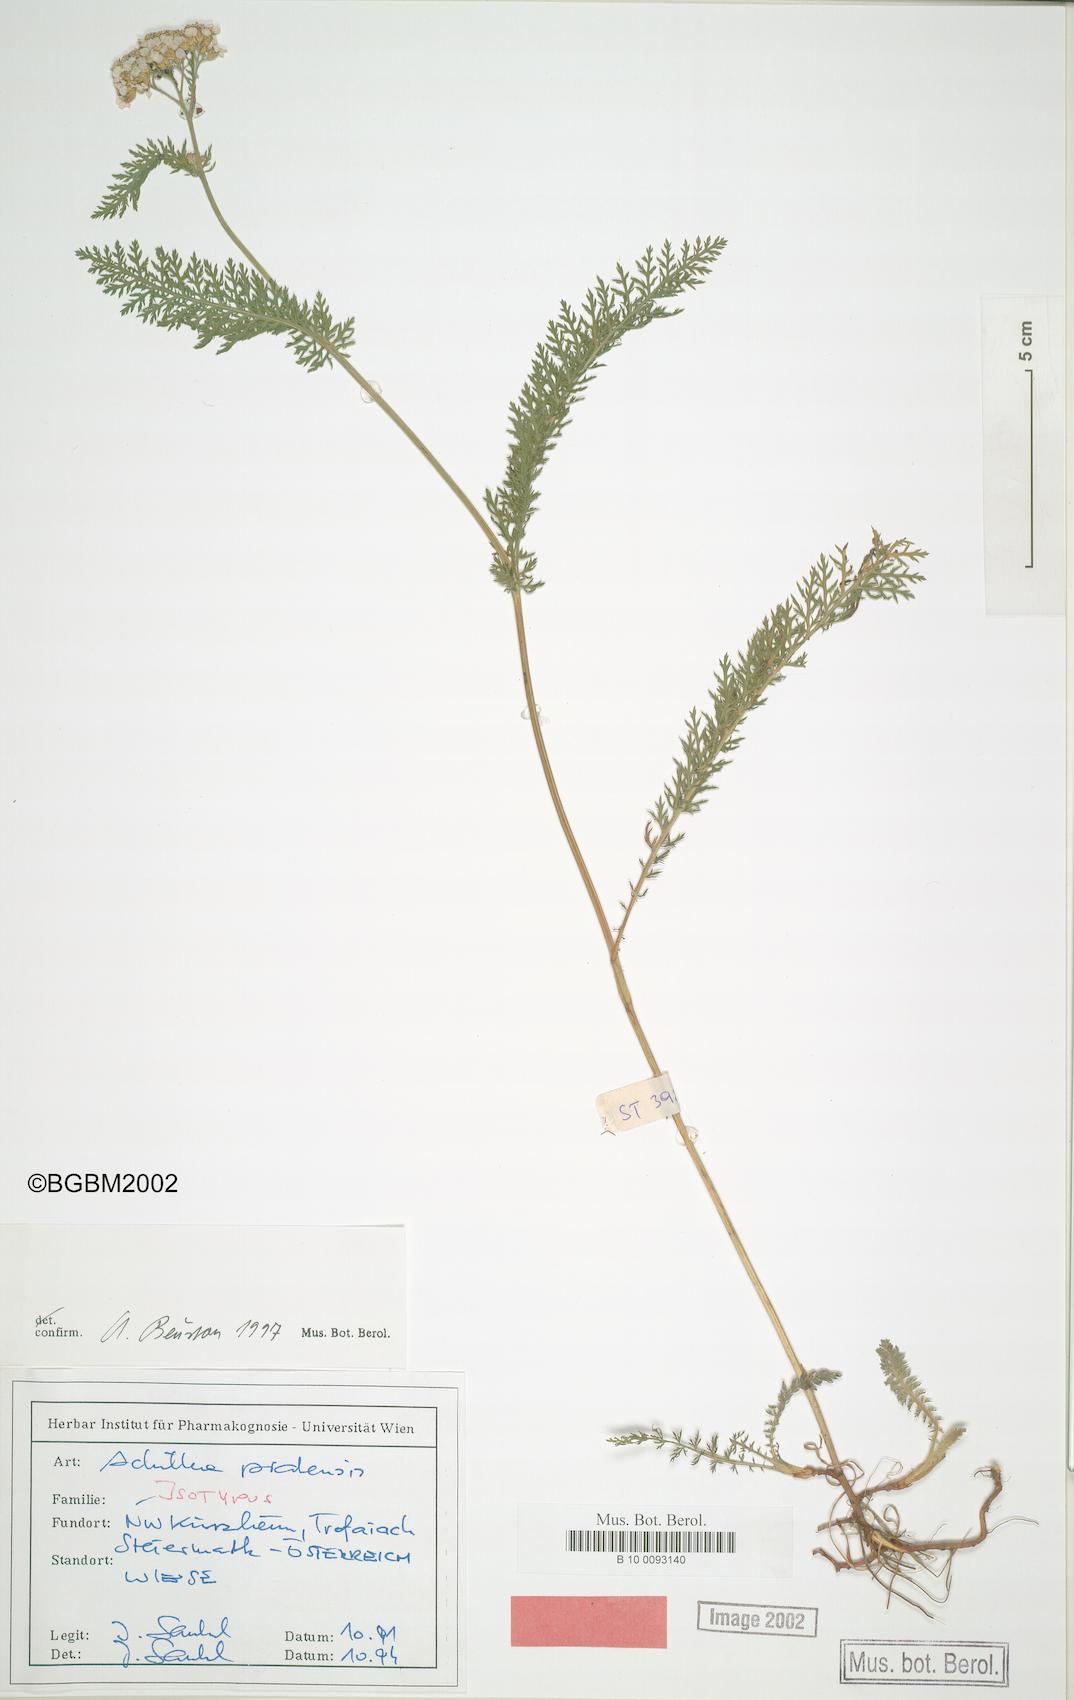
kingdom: Plantae
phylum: Tracheophyta
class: Magnoliopsida
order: Asterales
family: Asteraceae
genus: Achillea
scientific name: Achillea pratensis
